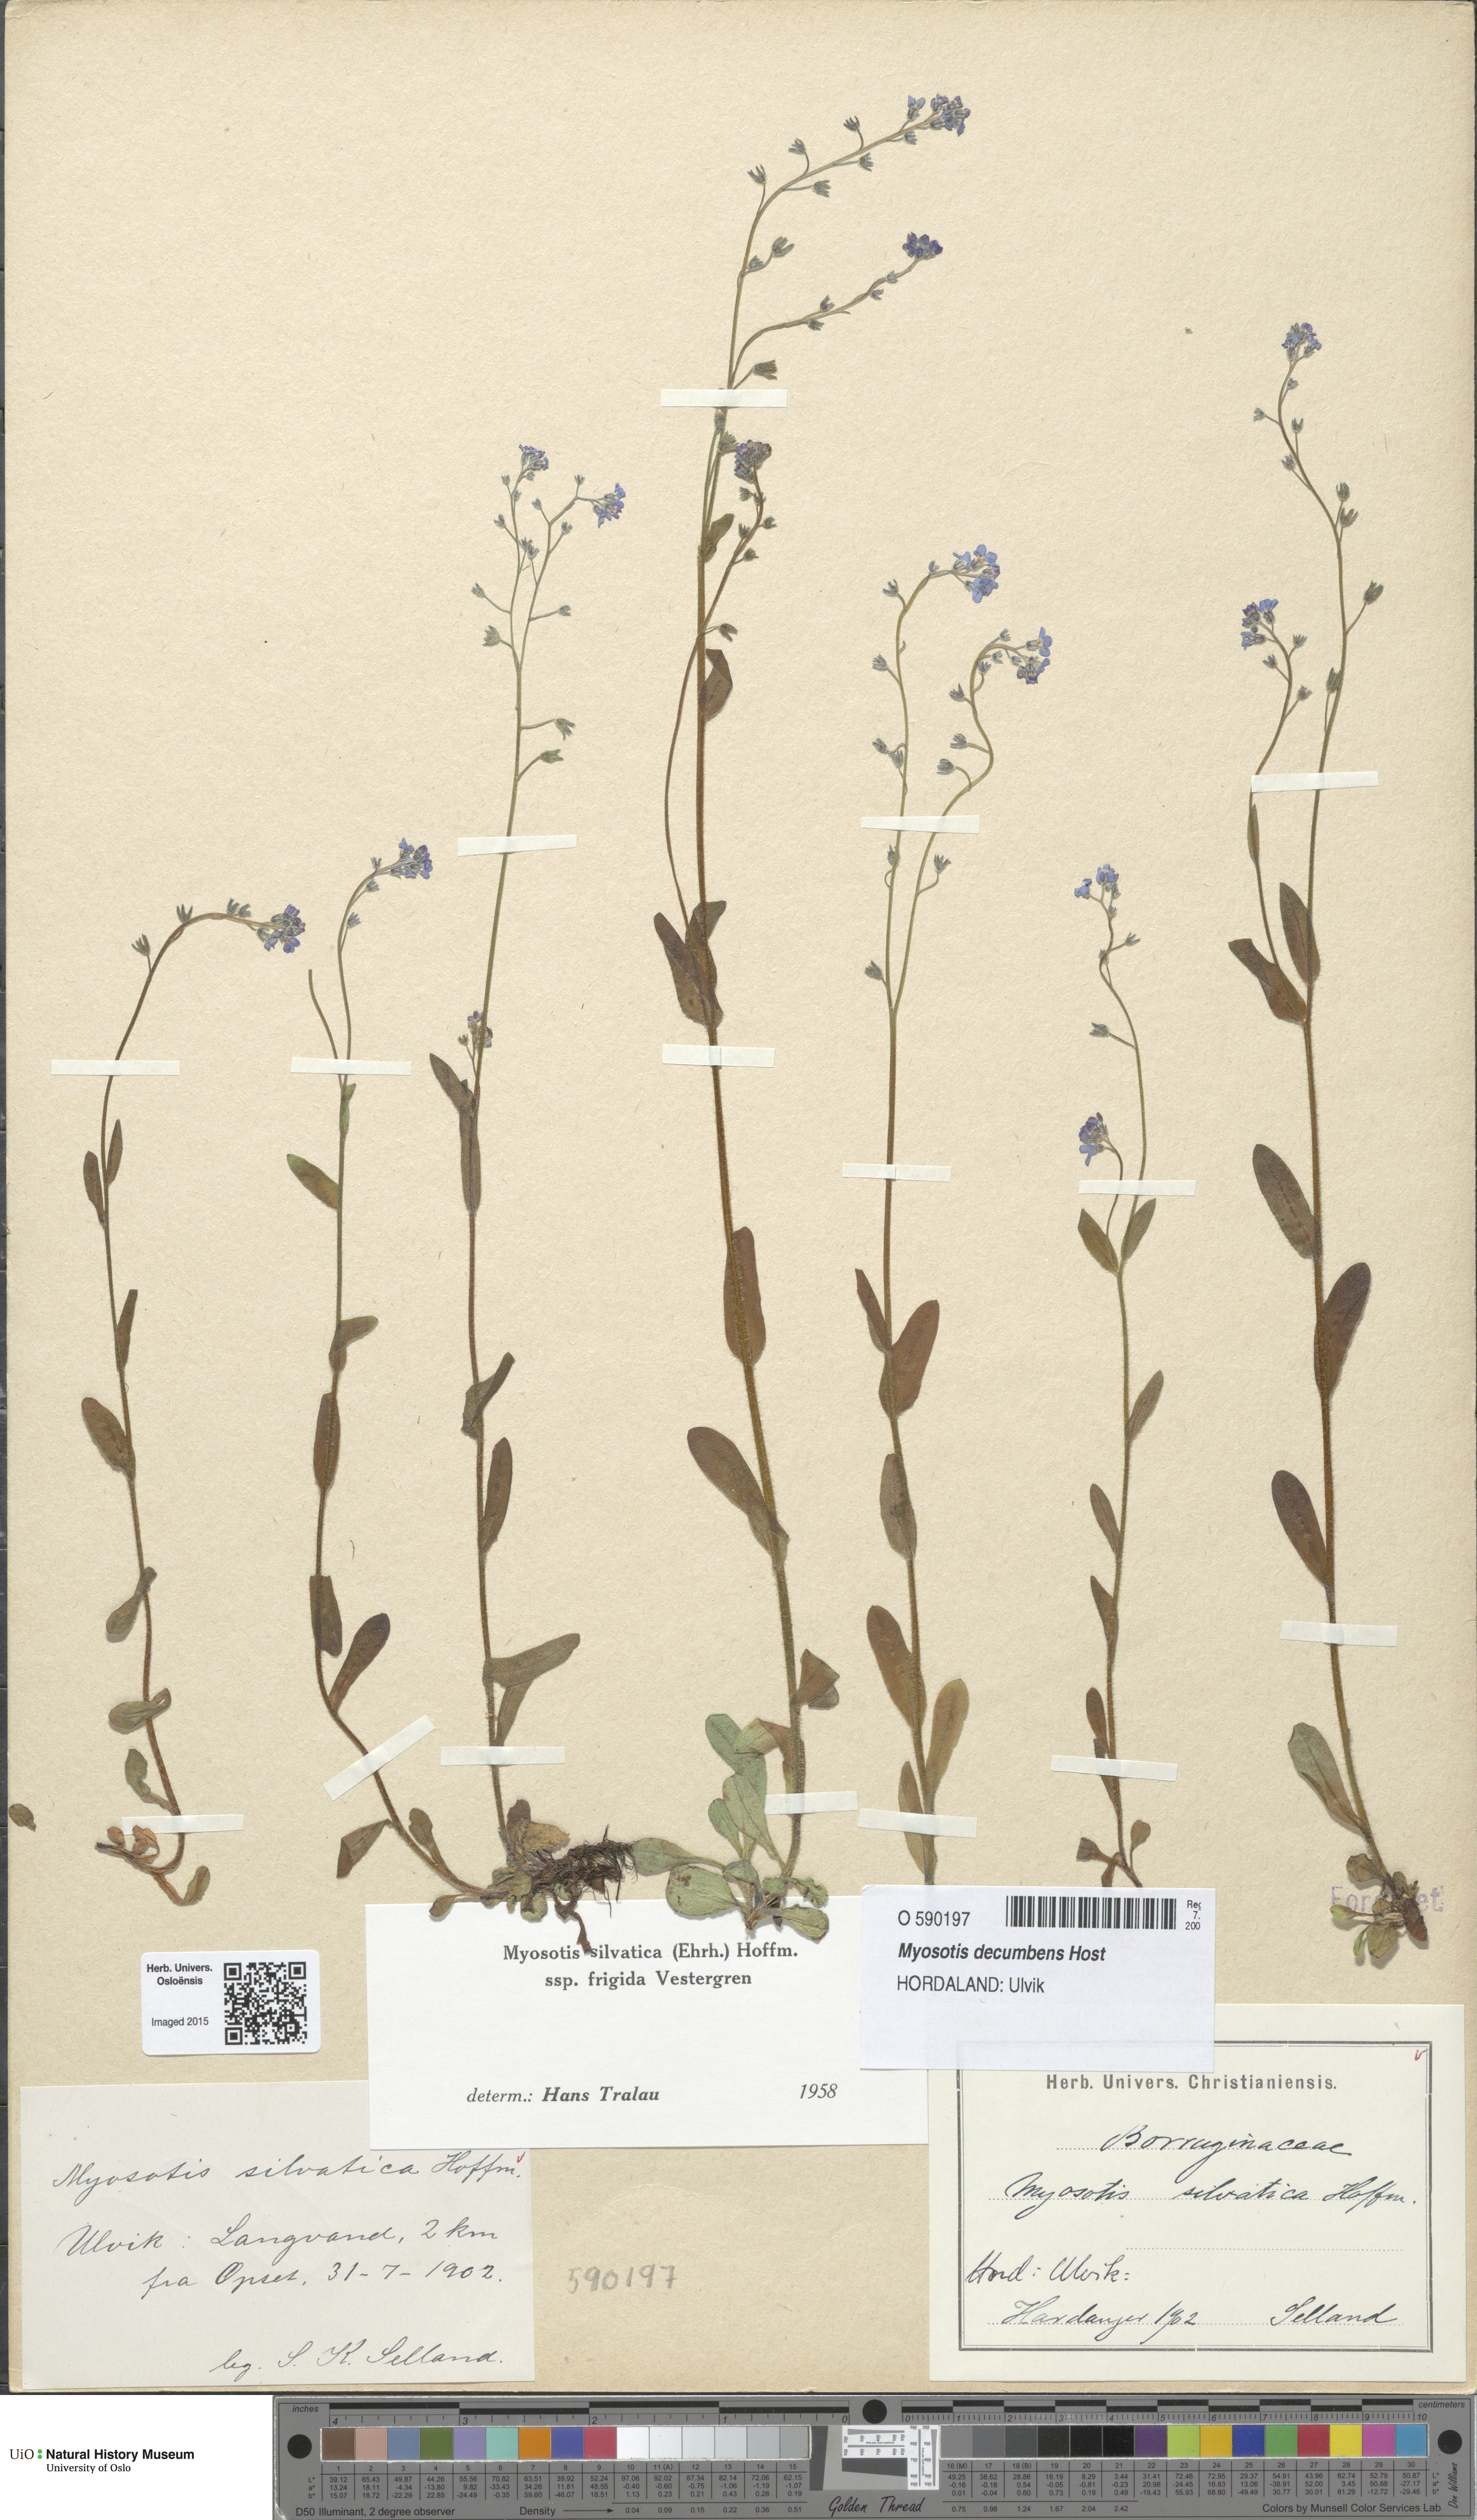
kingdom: Plantae
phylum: Tracheophyta
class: Magnoliopsida
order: Boraginales
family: Boraginaceae
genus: Myosotis
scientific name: Myosotis decumbens
